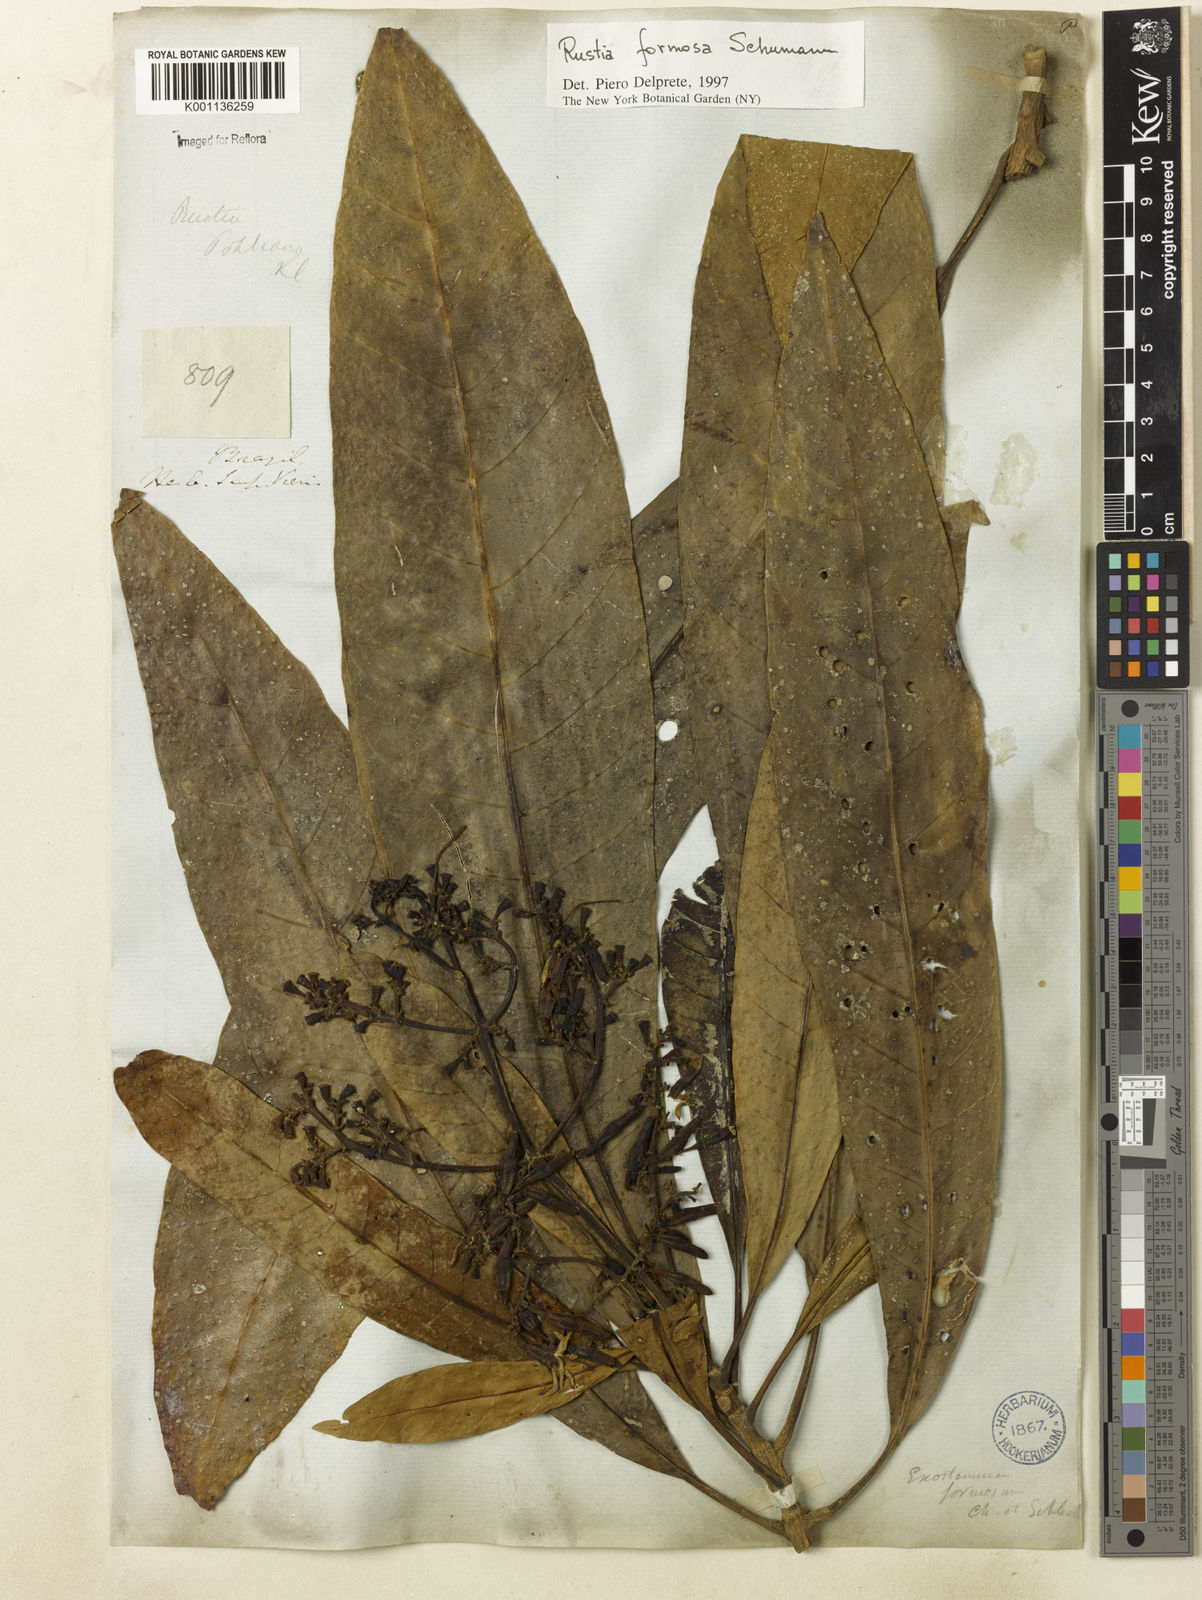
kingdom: Plantae
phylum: Tracheophyta
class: Magnoliopsida
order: Gentianales
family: Rubiaceae
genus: Rustia
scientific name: Rustia formosa
